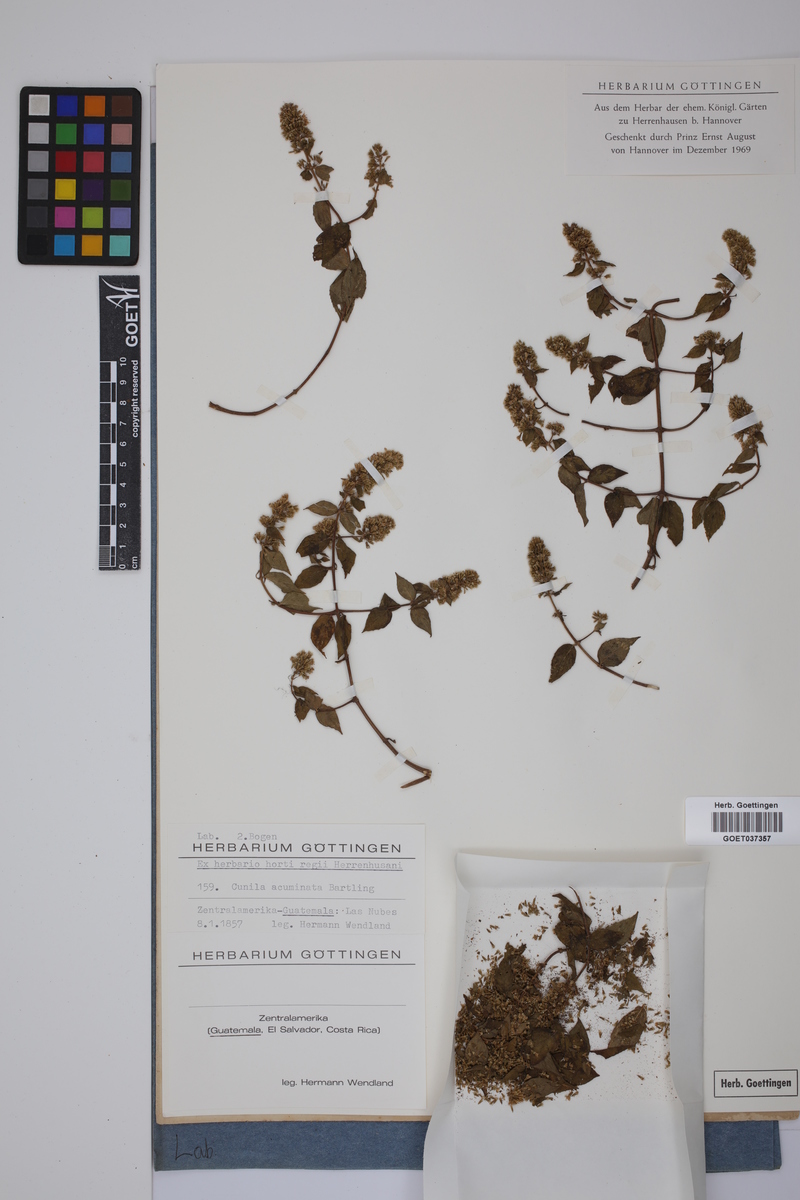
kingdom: Plantae
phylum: Tracheophyta
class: Magnoliopsida
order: Lamiales
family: Lamiaceae
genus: Pycnanthemum
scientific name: Pycnanthemum
